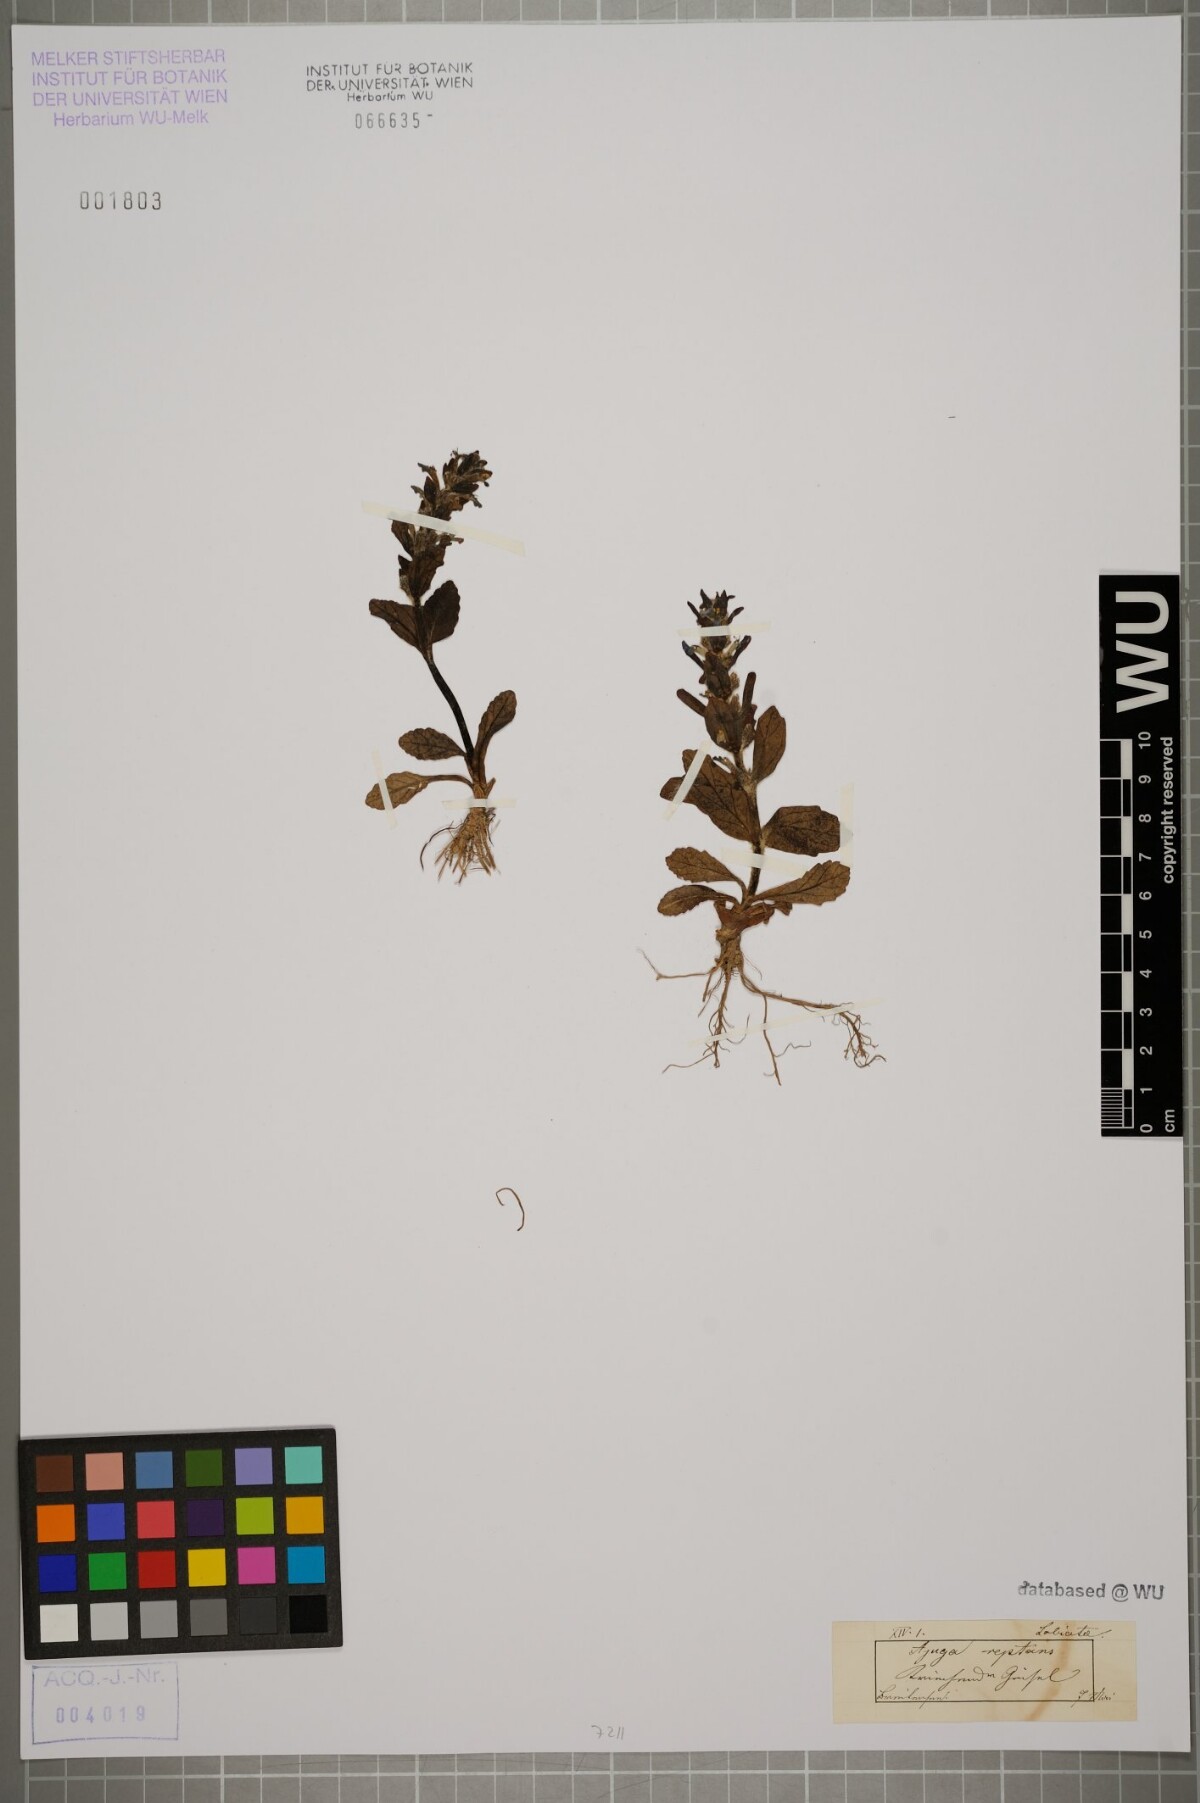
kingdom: Plantae
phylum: Tracheophyta
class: Magnoliopsida
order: Lamiales
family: Lamiaceae
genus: Ajuga
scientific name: Ajuga reptans
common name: Bugle
